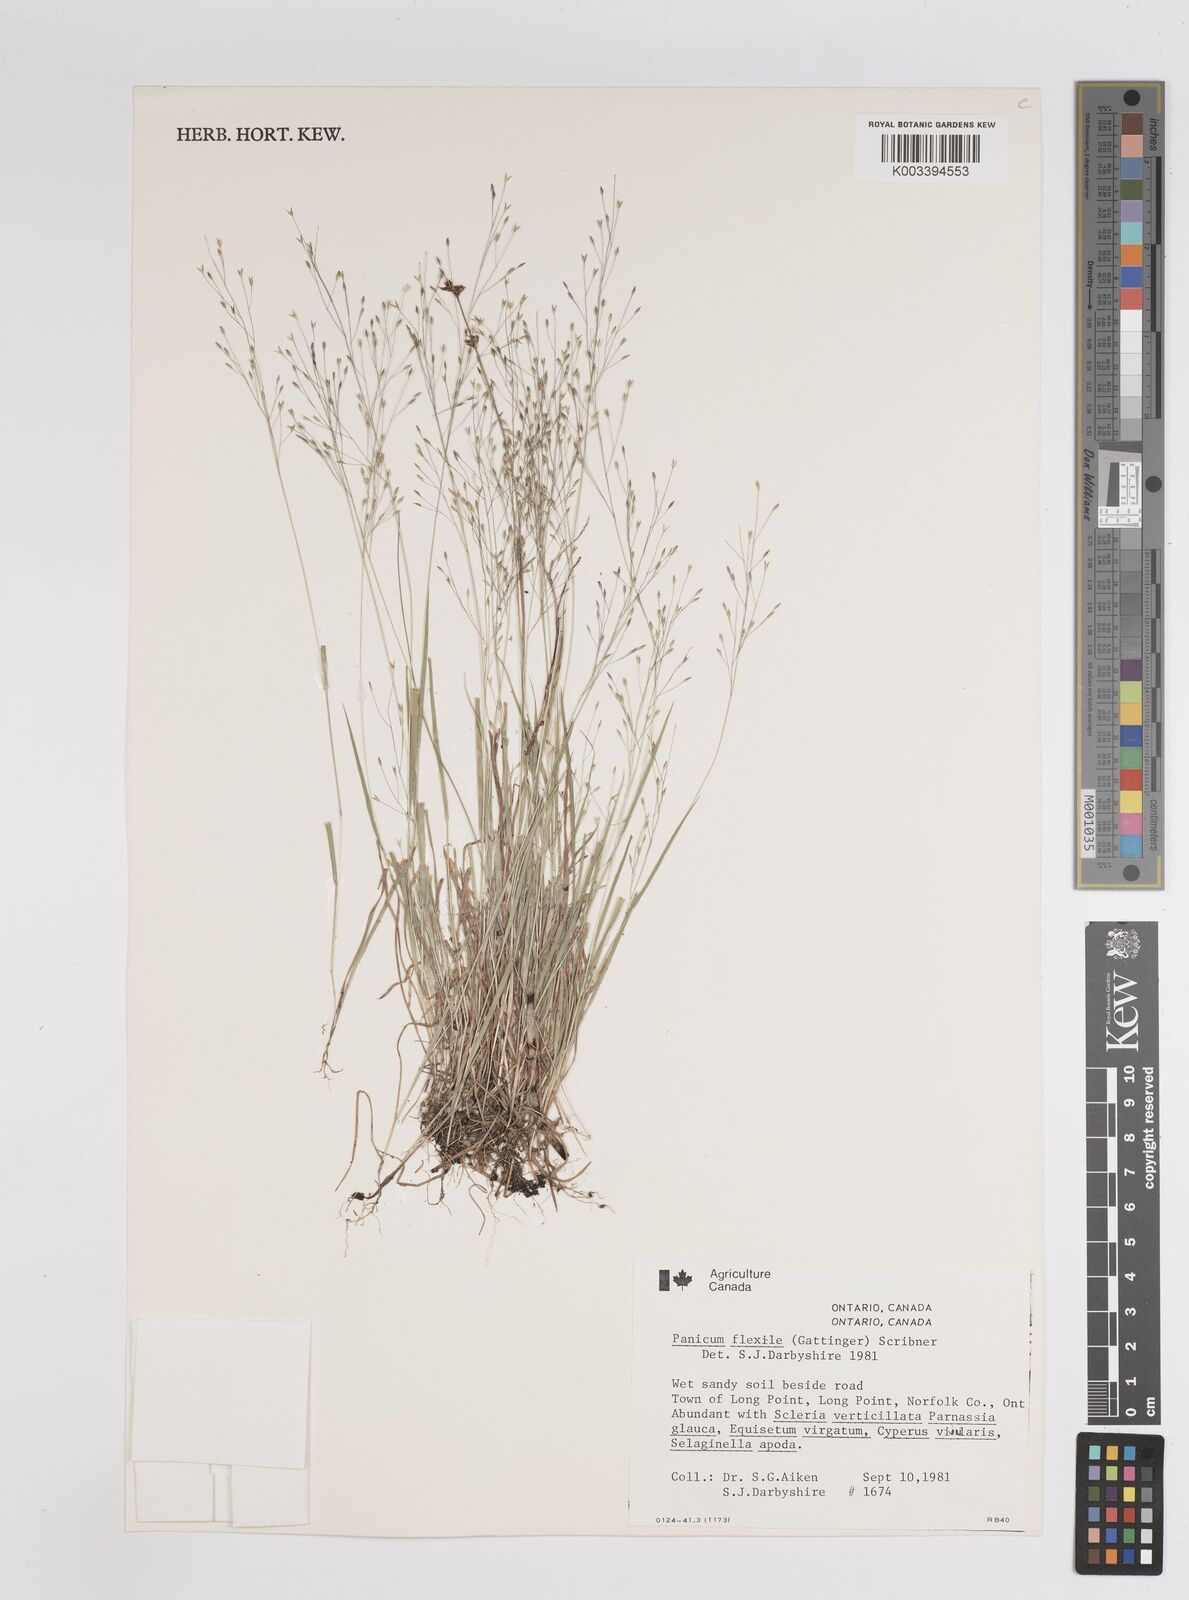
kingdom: Plantae
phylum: Tracheophyta
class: Liliopsida
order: Poales
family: Poaceae
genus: Panicum
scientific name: Panicum flexile
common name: Wiry panicgrass
